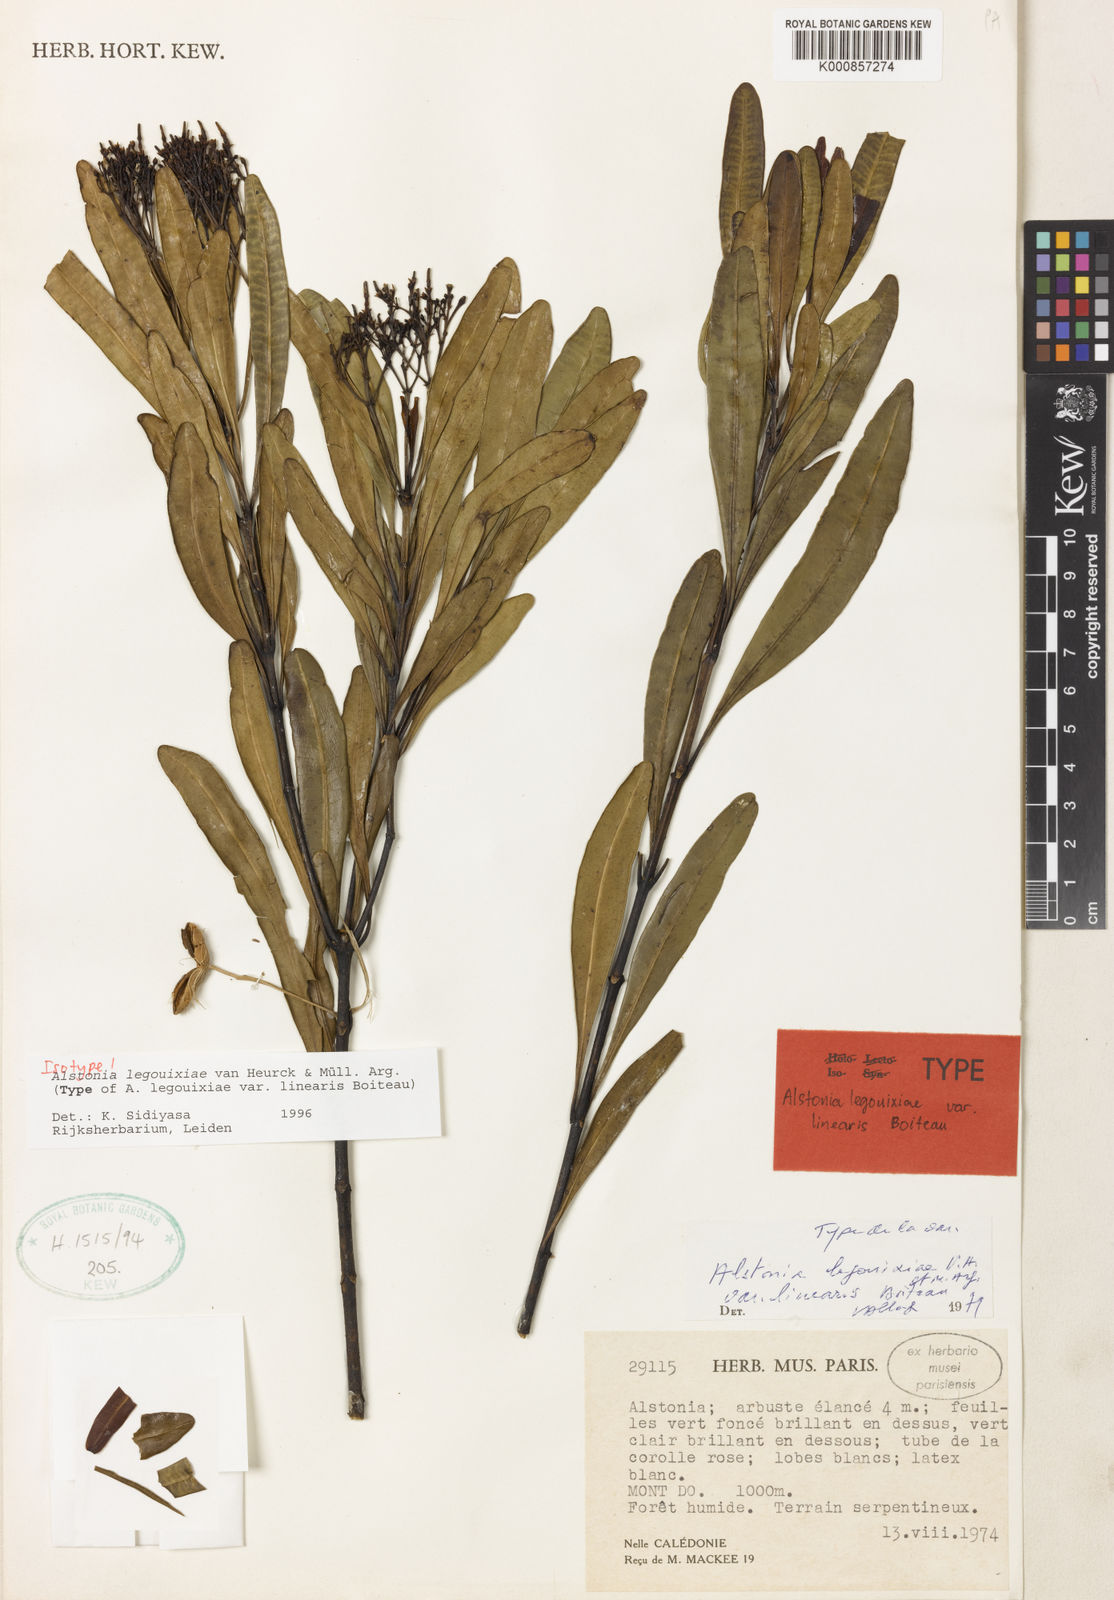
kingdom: Plantae
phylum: Tracheophyta
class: Magnoliopsida
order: Gentianales
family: Apocynaceae
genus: Alstonia
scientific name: Alstonia
